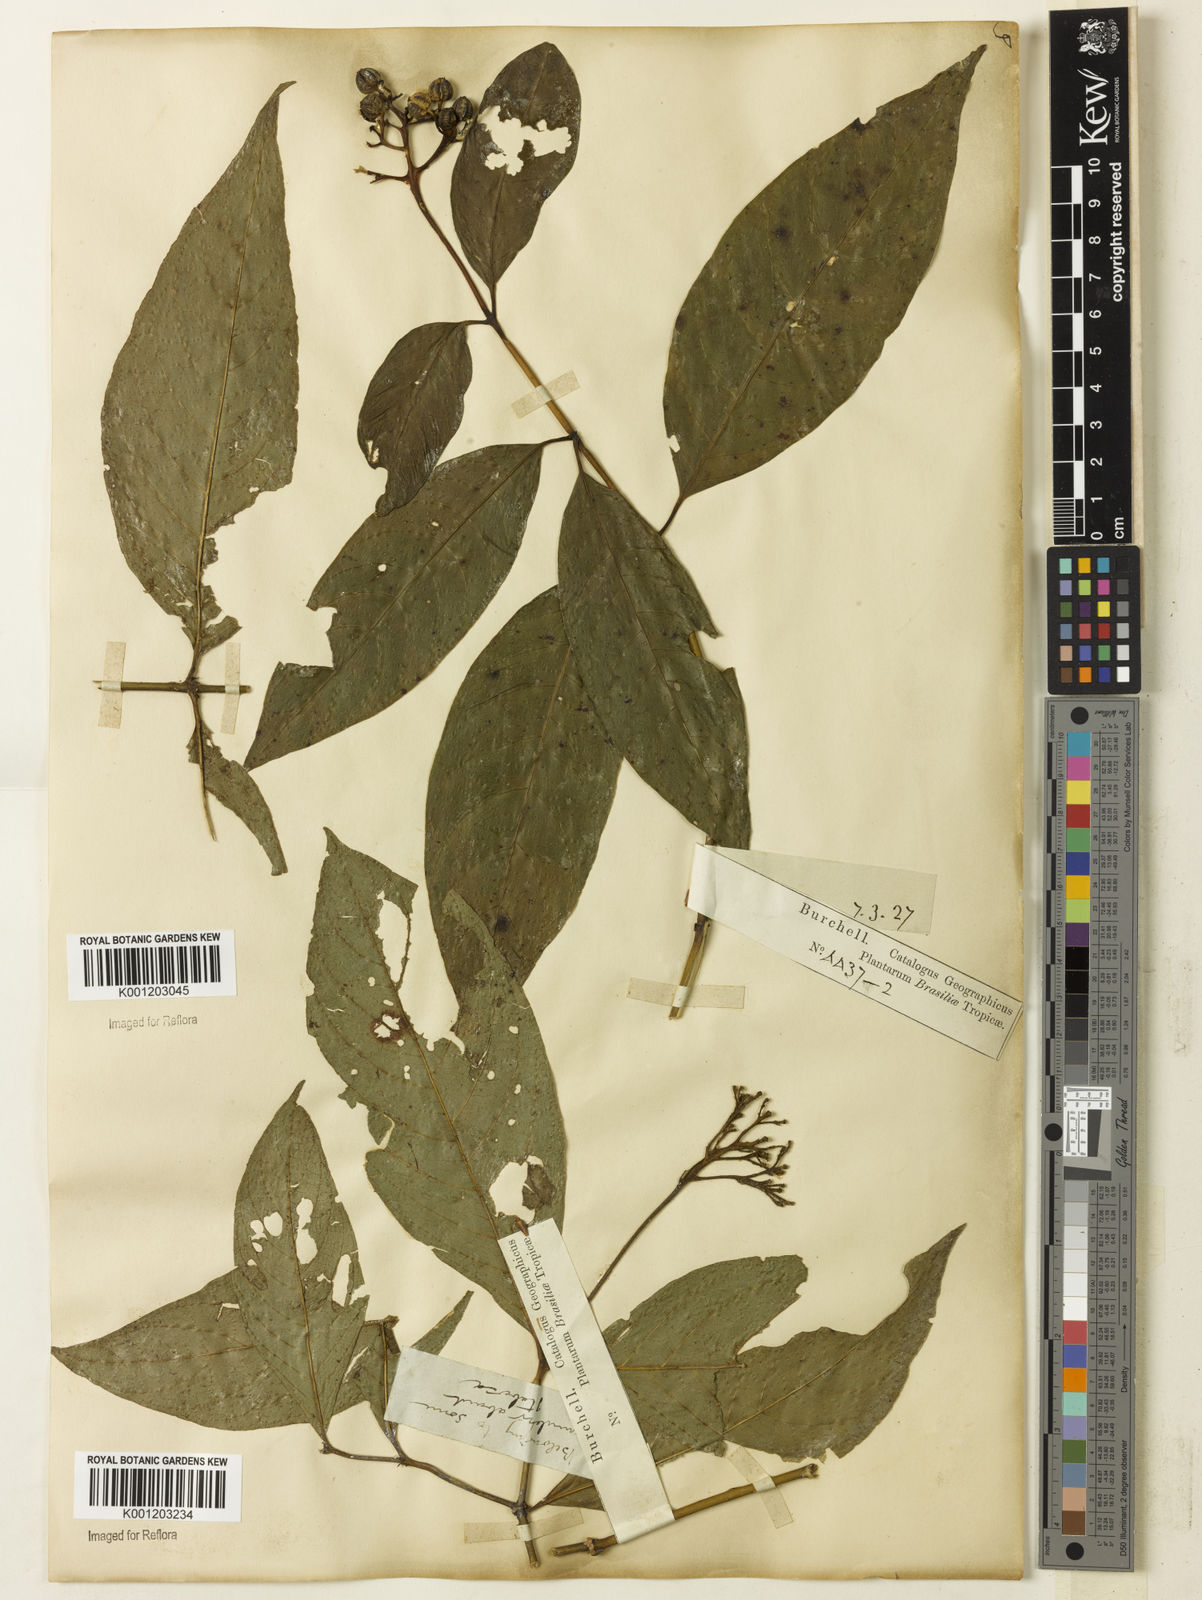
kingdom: Plantae
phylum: Tracheophyta
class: Magnoliopsida
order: Gentianales
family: Rubiaceae
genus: Palicourea
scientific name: Palicourea marcgravii
